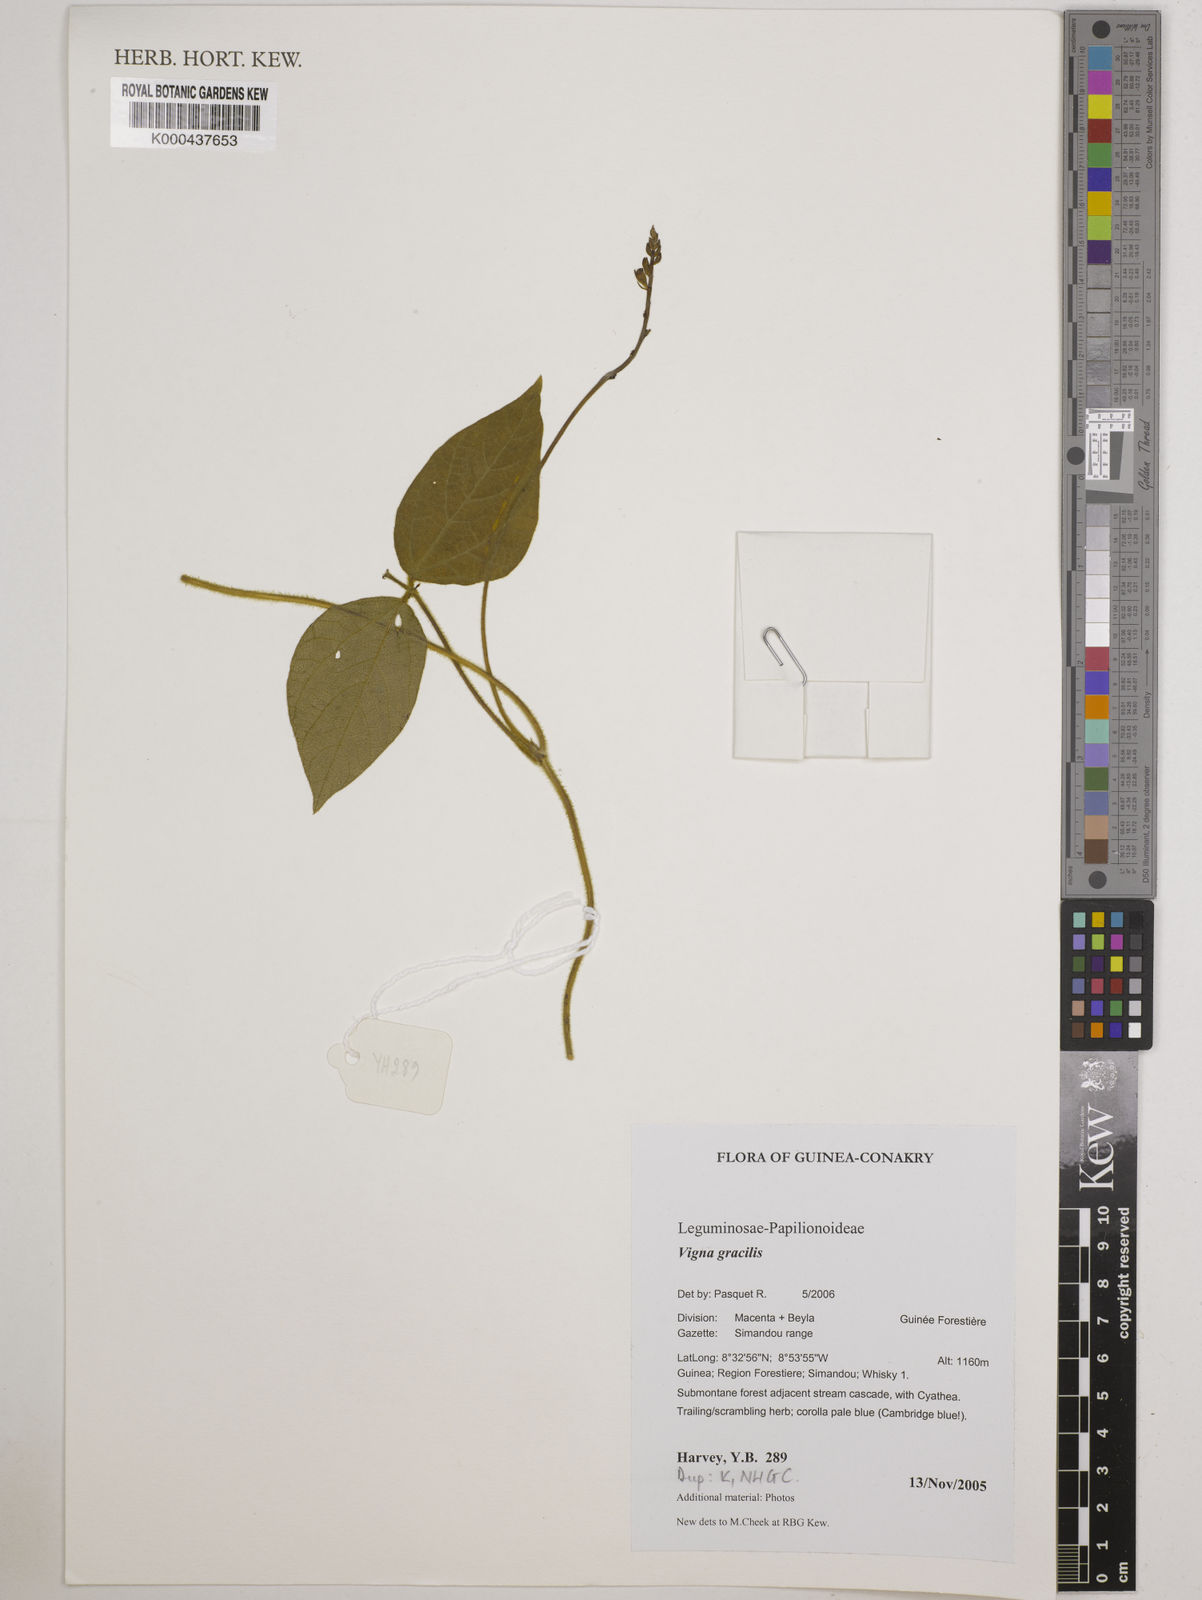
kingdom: Plantae
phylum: Tracheophyta
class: Magnoliopsida
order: Fabales
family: Fabaceae
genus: Vigna
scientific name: Vigna gracilis
